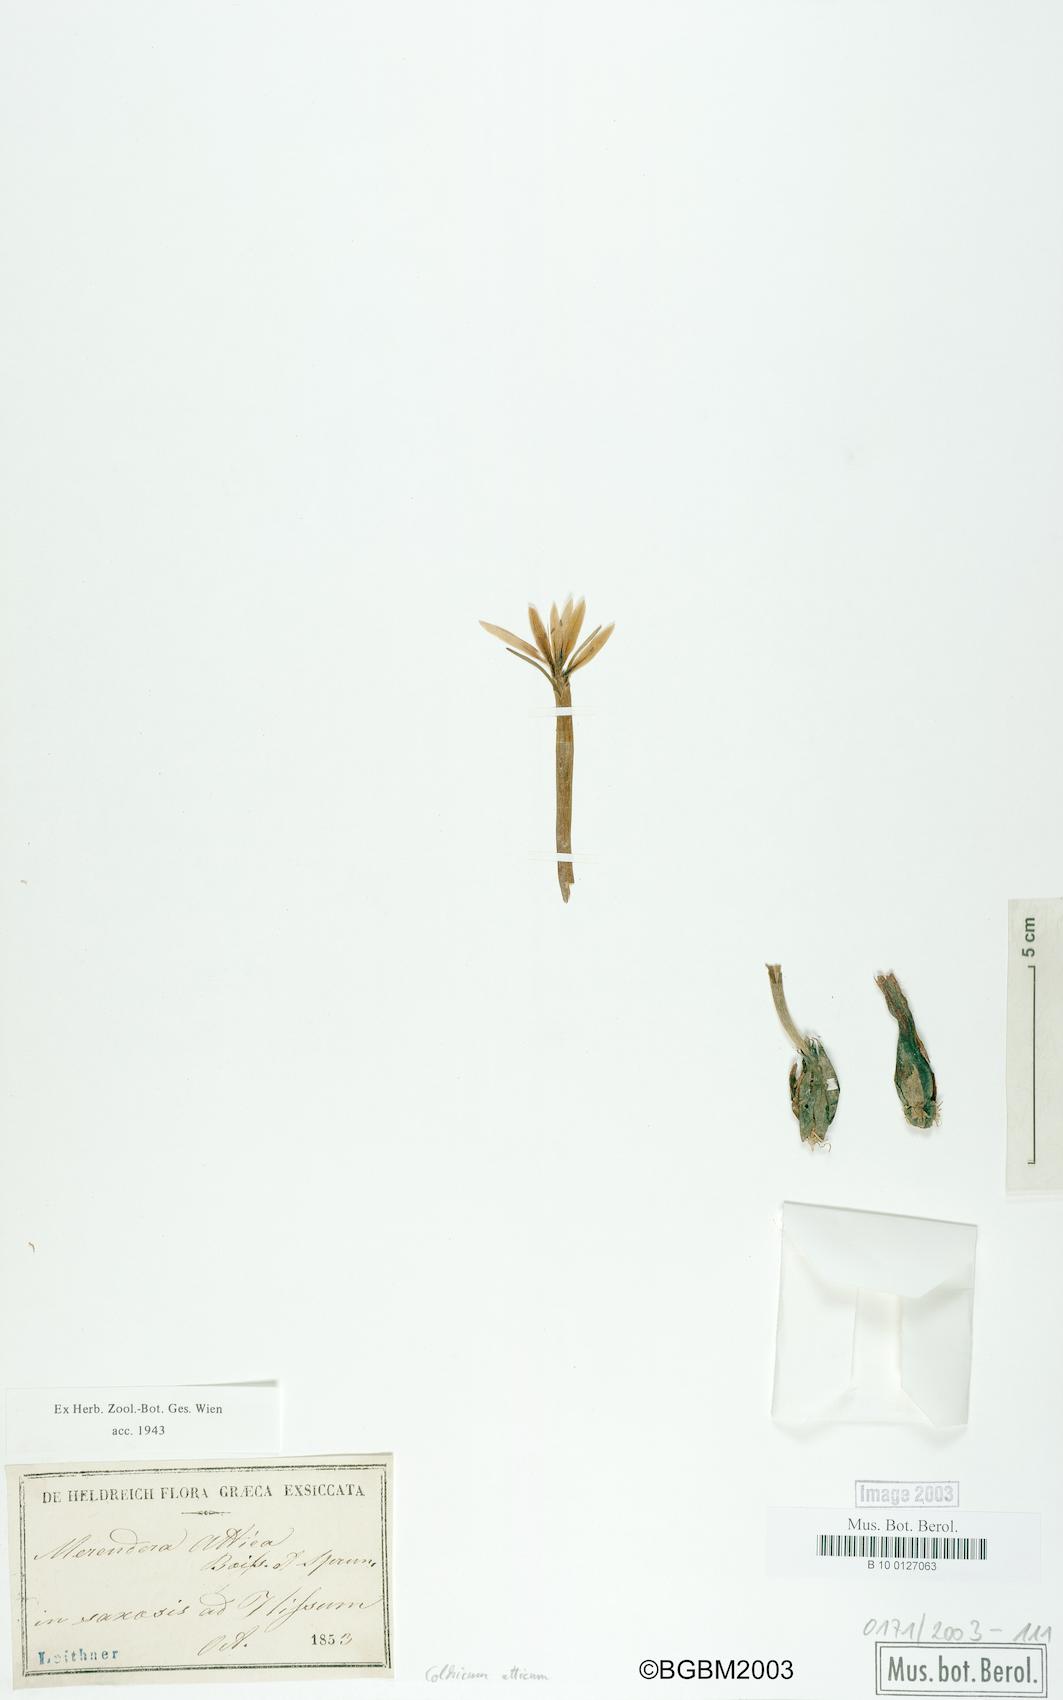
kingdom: Plantae
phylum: Tracheophyta
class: Liliopsida
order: Liliales
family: Colchicaceae
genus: Colchicum
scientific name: Colchicum atticum
